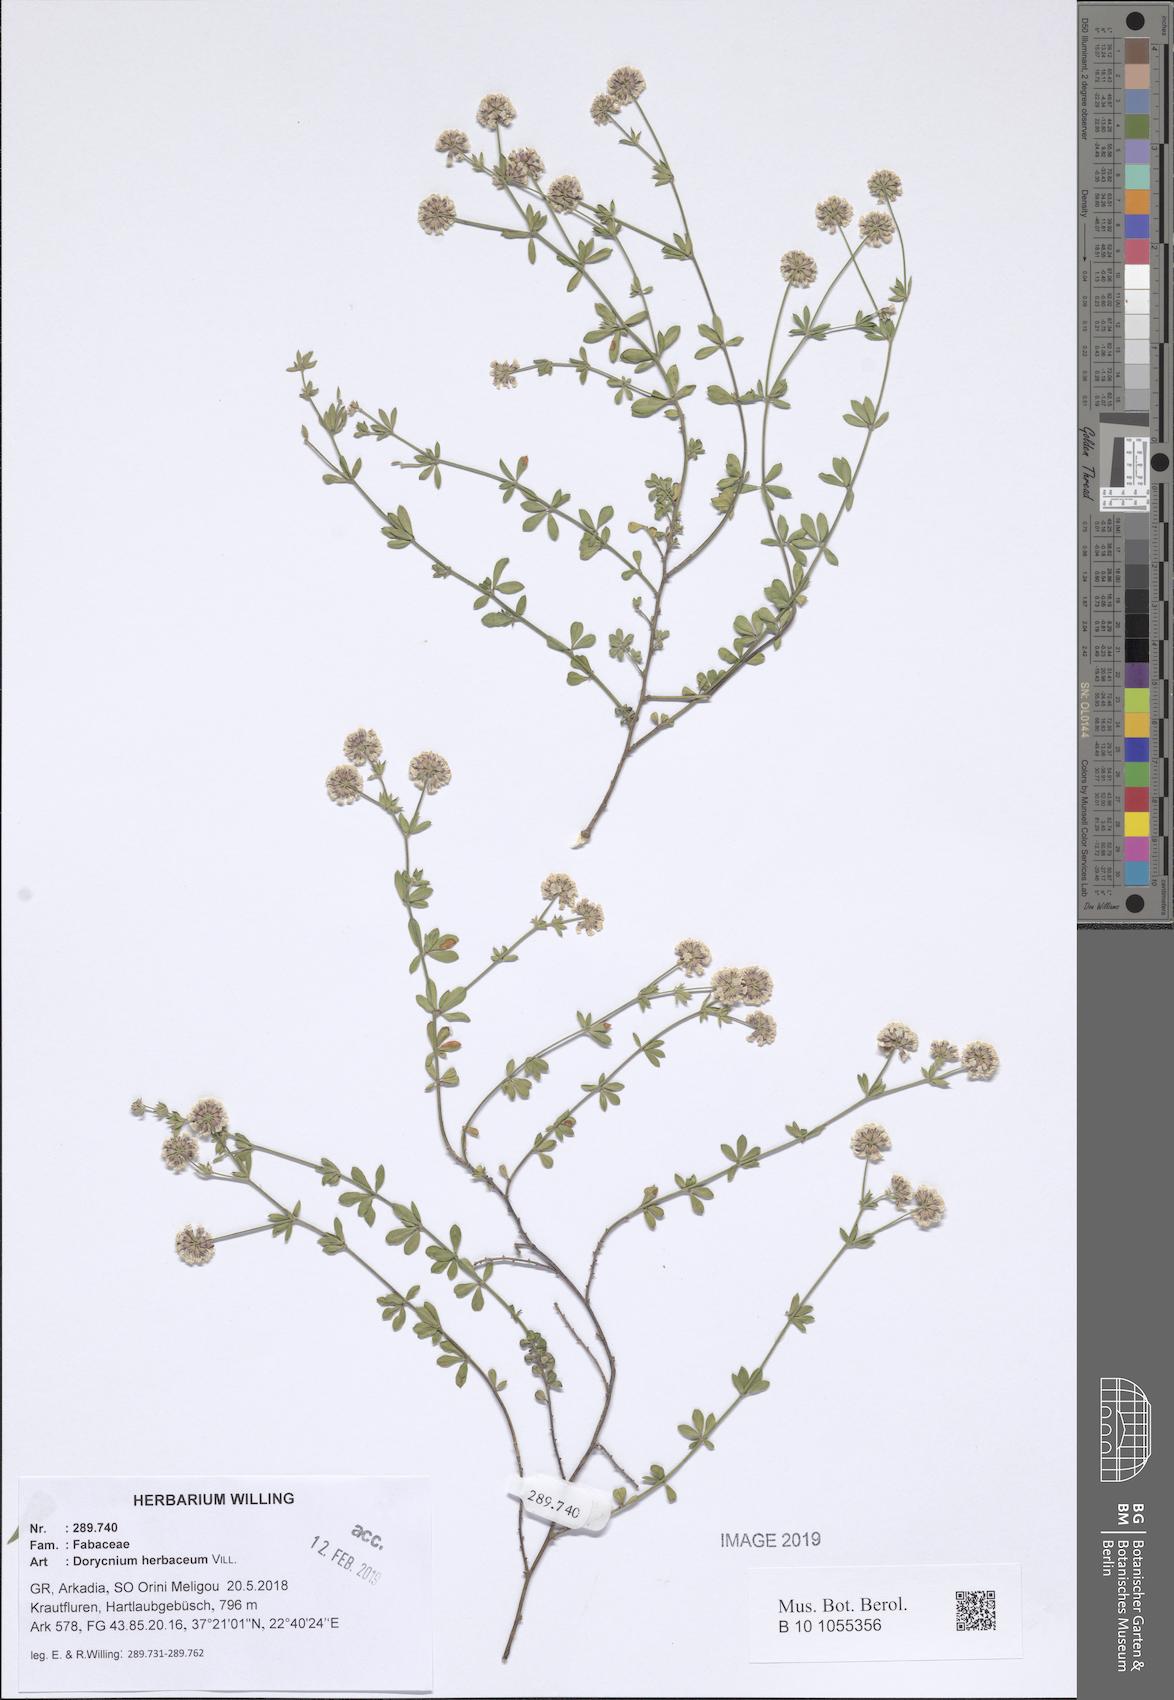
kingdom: Plantae
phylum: Tracheophyta
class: Magnoliopsida
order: Fabales
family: Fabaceae
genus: Lotus
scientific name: Lotus herbaceus
